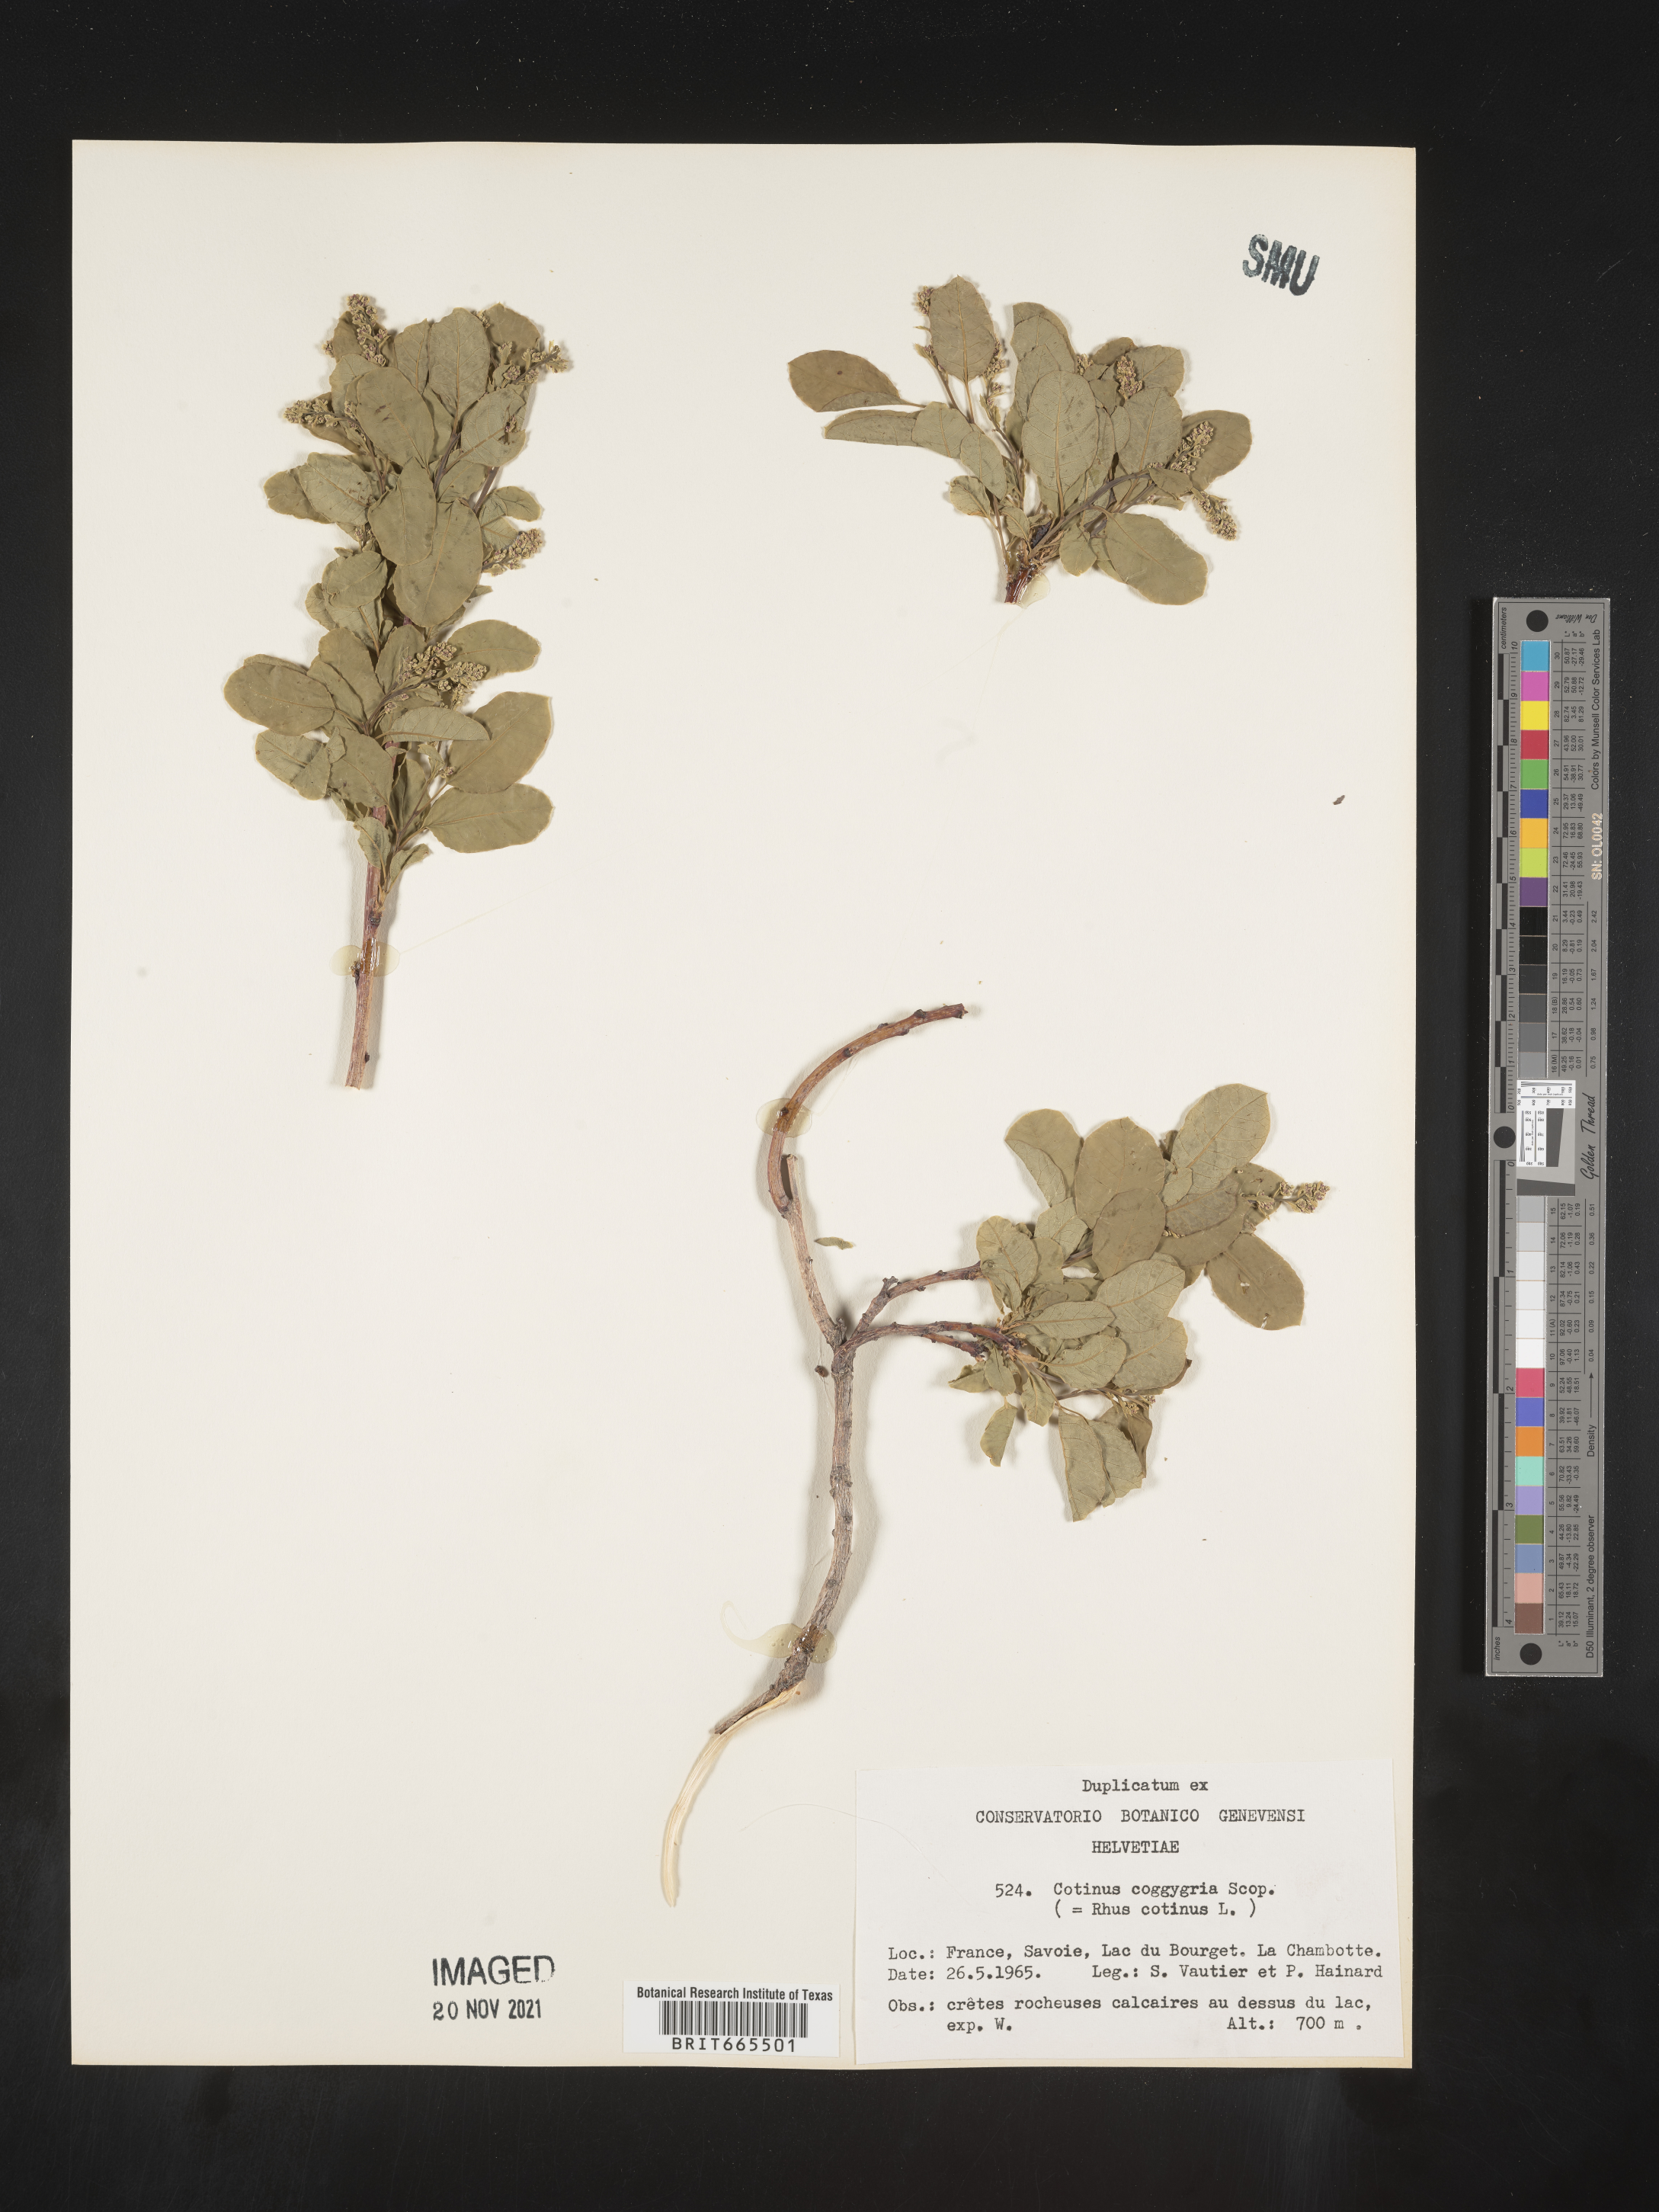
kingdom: Plantae
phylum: Tracheophyta
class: Magnoliopsida
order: Sapindales
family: Anacardiaceae
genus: Cotinus
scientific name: Cotinus
